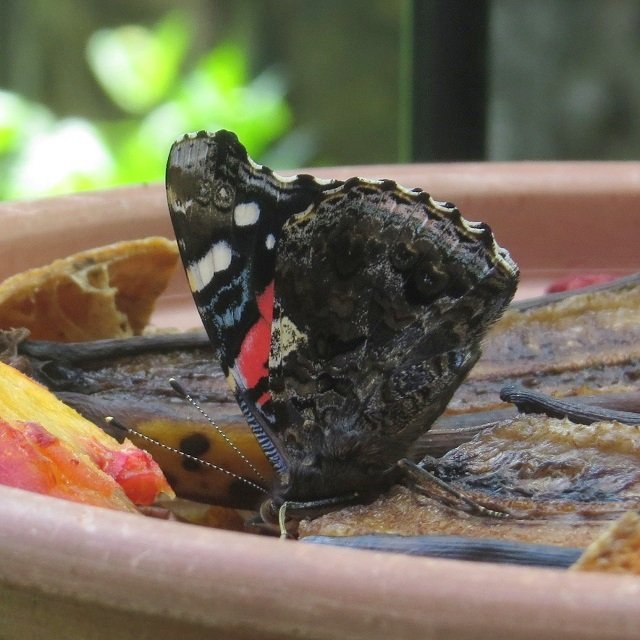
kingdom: Animalia
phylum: Arthropoda
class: Insecta
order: Lepidoptera
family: Nymphalidae
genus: Vanessa
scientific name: Vanessa atalanta
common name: Red Admiral
